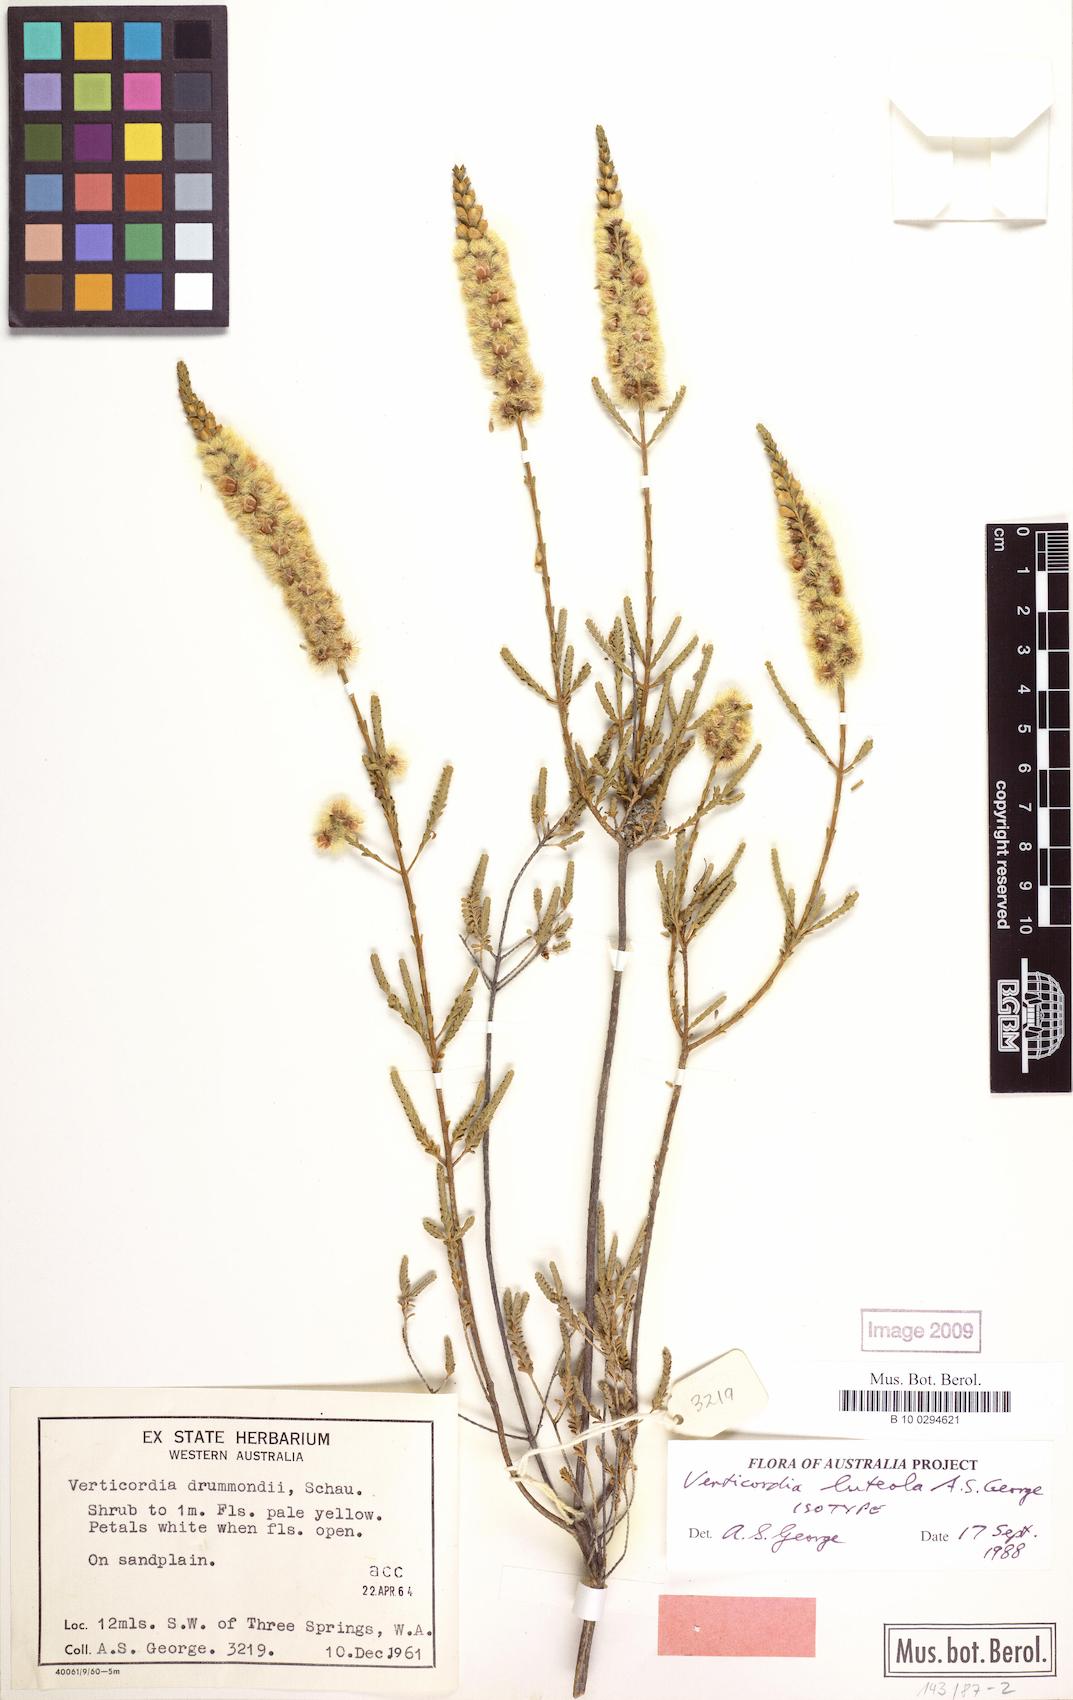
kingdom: Plantae
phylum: Tracheophyta
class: Magnoliopsida
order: Myrtales
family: Myrtaceae
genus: Verticordia
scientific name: Verticordia luteola
